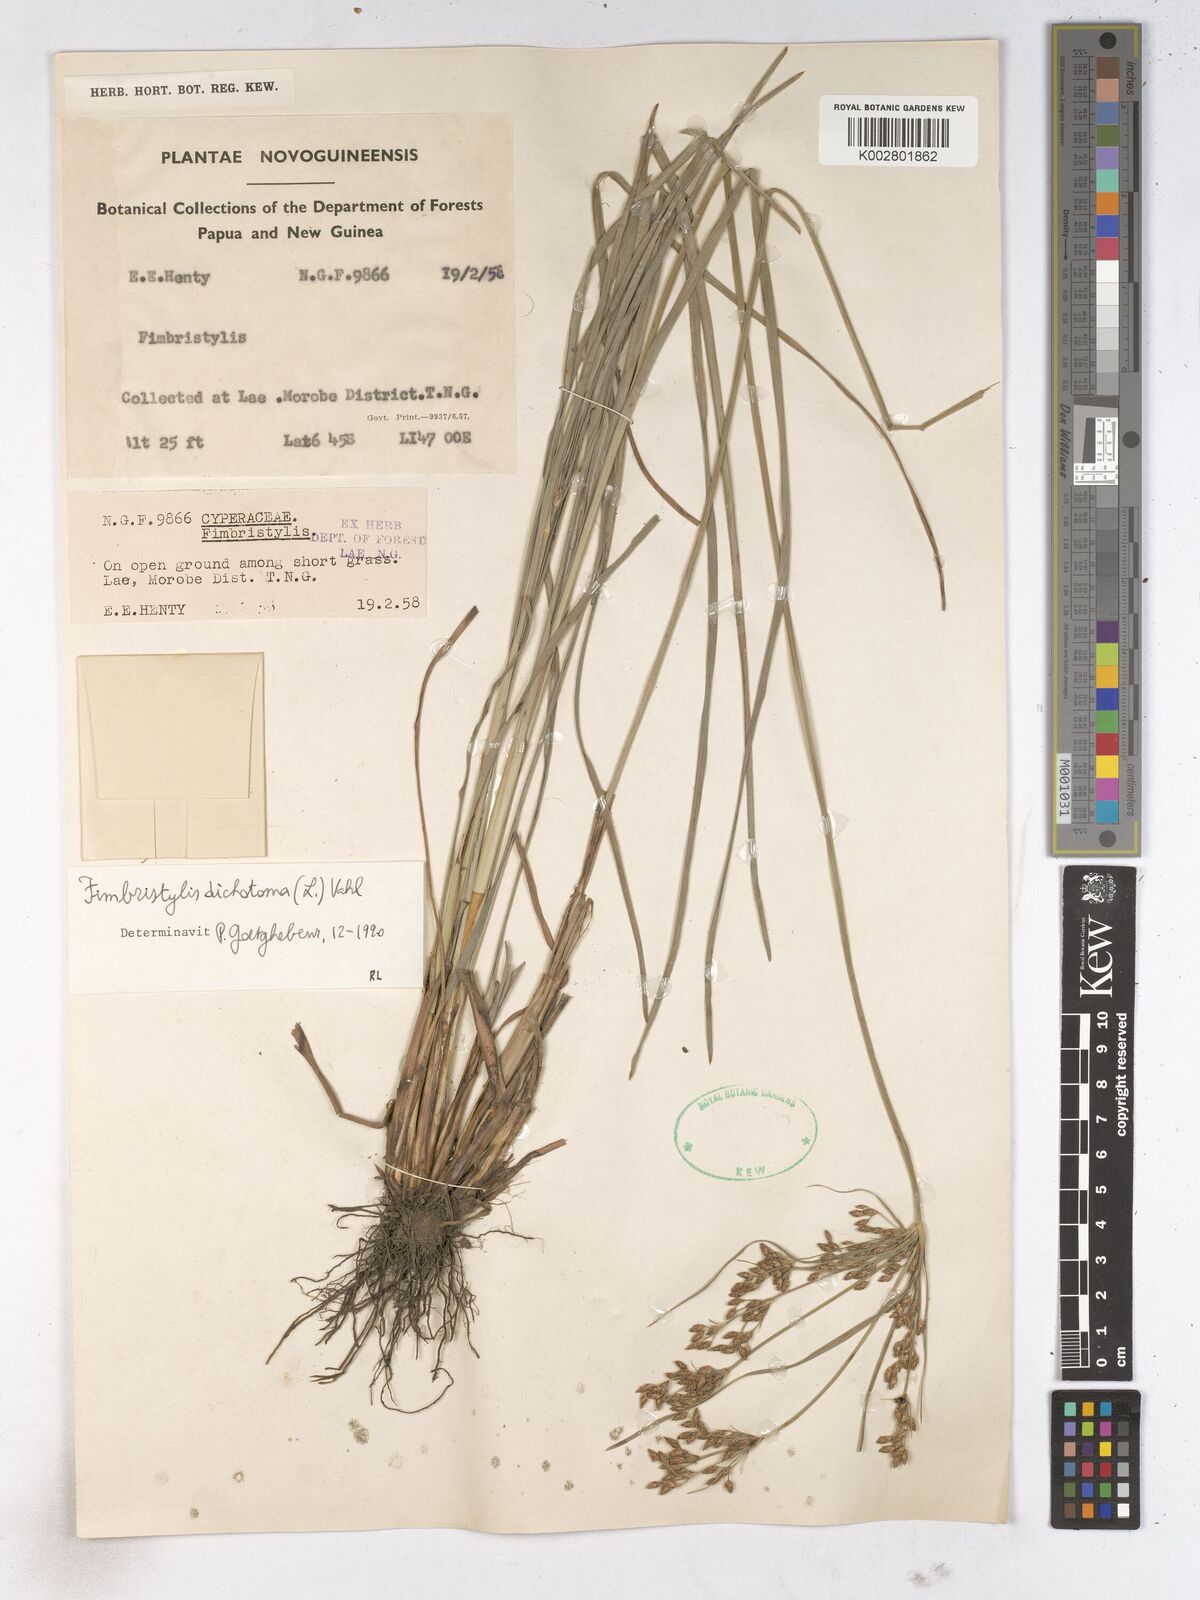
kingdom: Plantae
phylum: Tracheophyta
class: Liliopsida
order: Poales
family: Cyperaceae
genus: Fimbristylis
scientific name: Fimbristylis dichotoma
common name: Forked fimbry
